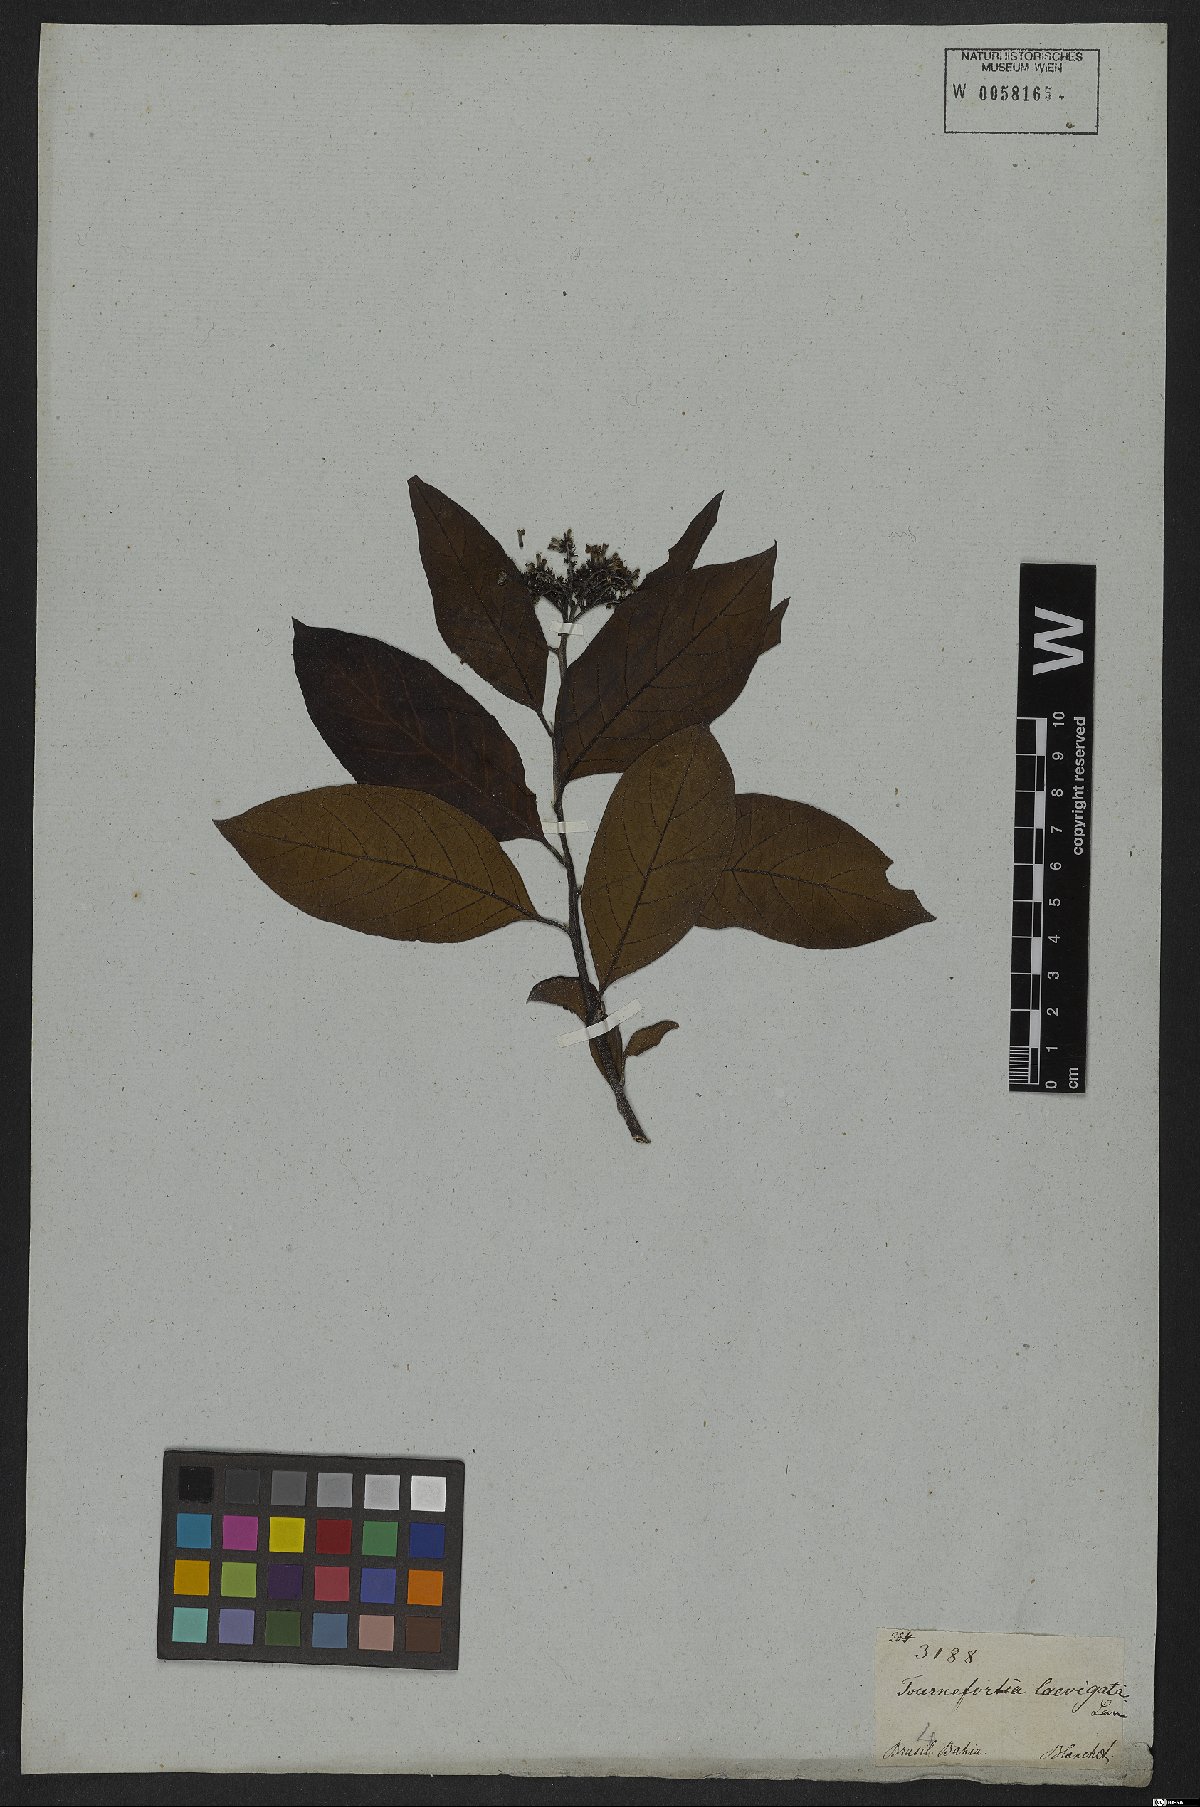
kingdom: Plantae
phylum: Tracheophyta
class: Magnoliopsida
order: Boraginales
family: Heliotropiaceae
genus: Heliotropium
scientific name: Heliotropium verdcourtii
